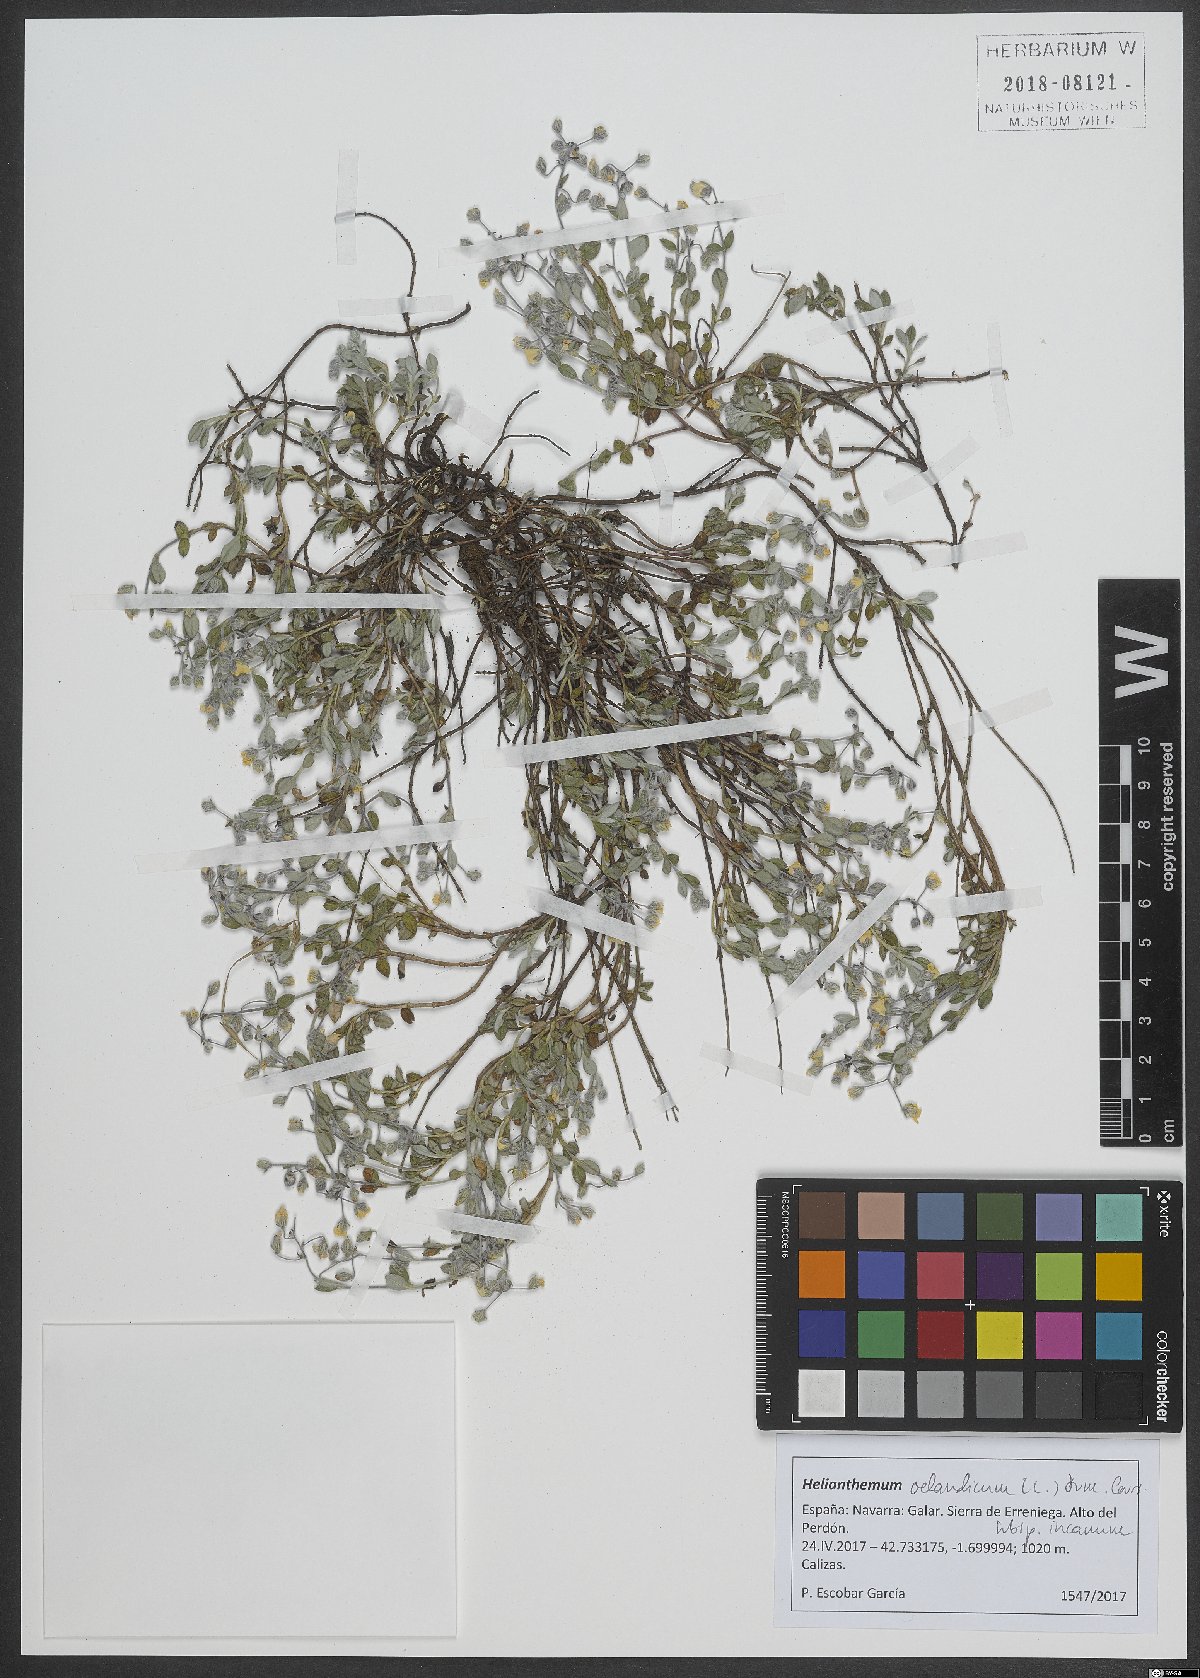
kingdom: Plantae
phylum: Tracheophyta
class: Magnoliopsida
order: Malvales
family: Cistaceae
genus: Helianthemum
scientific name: Helianthemum canum
